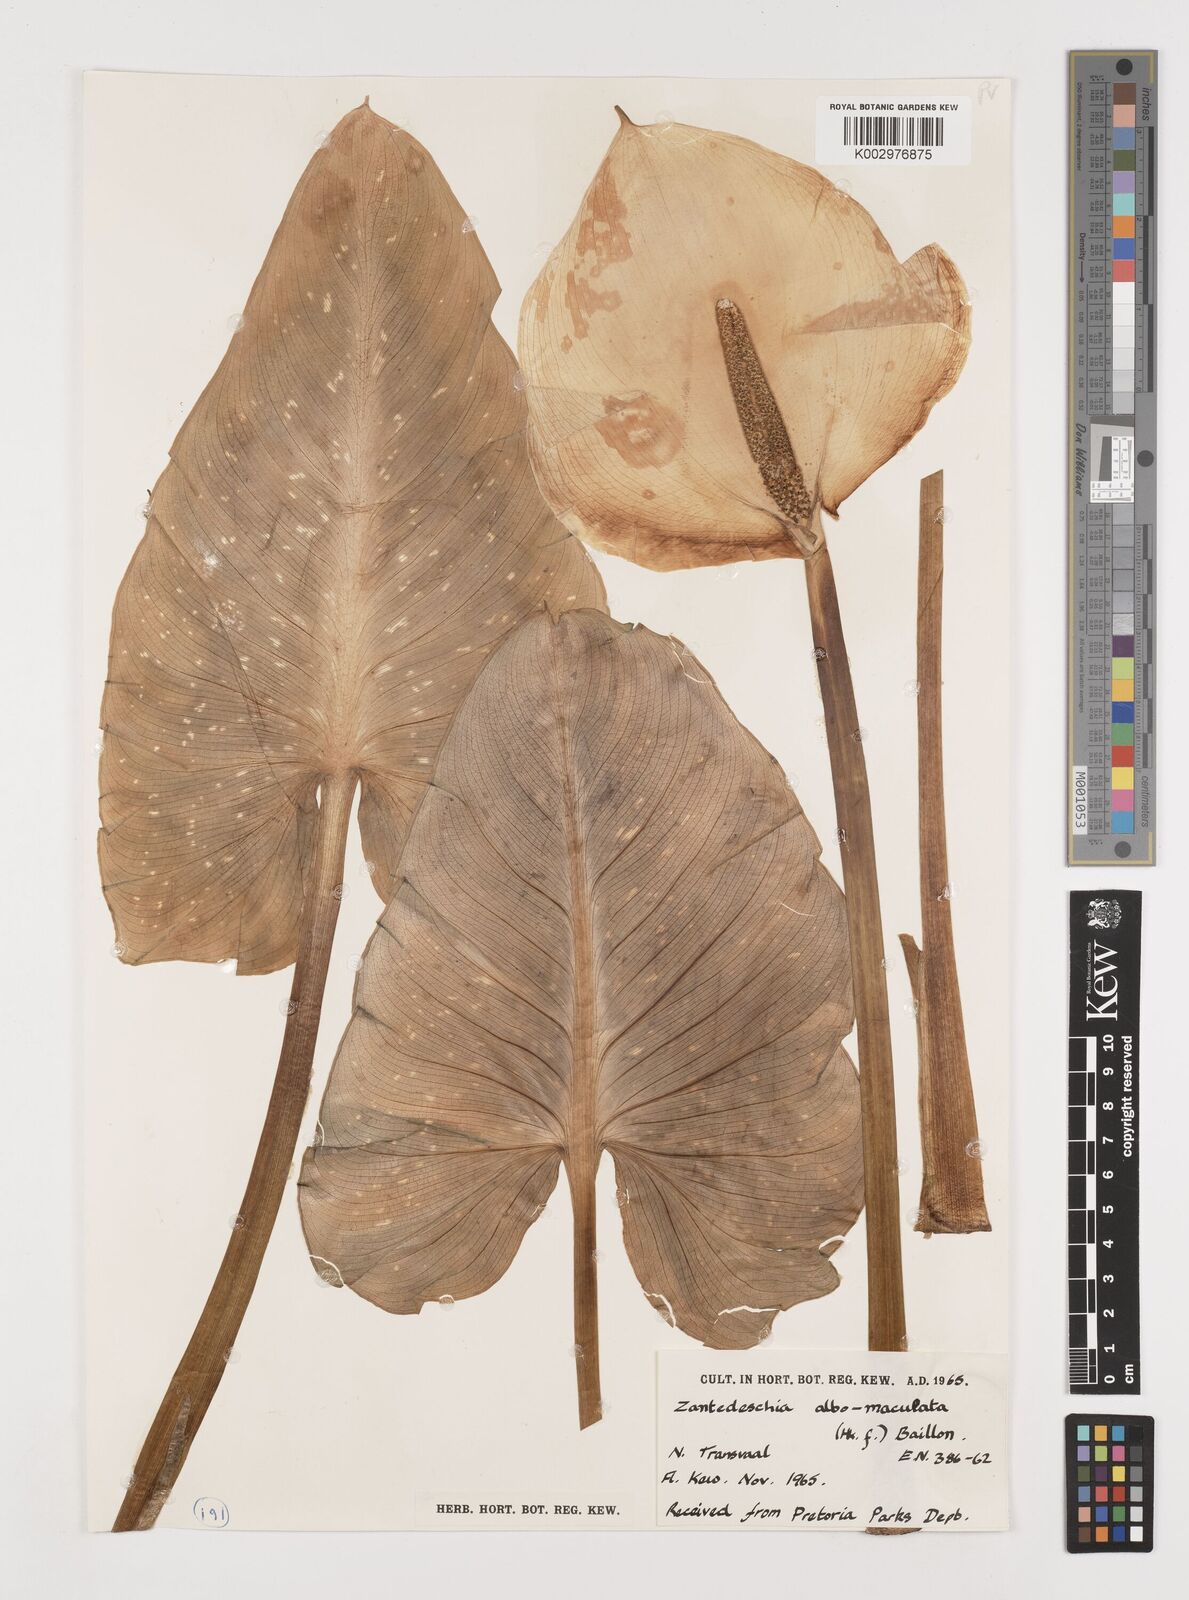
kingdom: Plantae
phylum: Tracheophyta
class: Liliopsida
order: Alismatales
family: Araceae
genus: Zantedeschia
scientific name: Zantedeschia albomaculata
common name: Spotted calla lily
